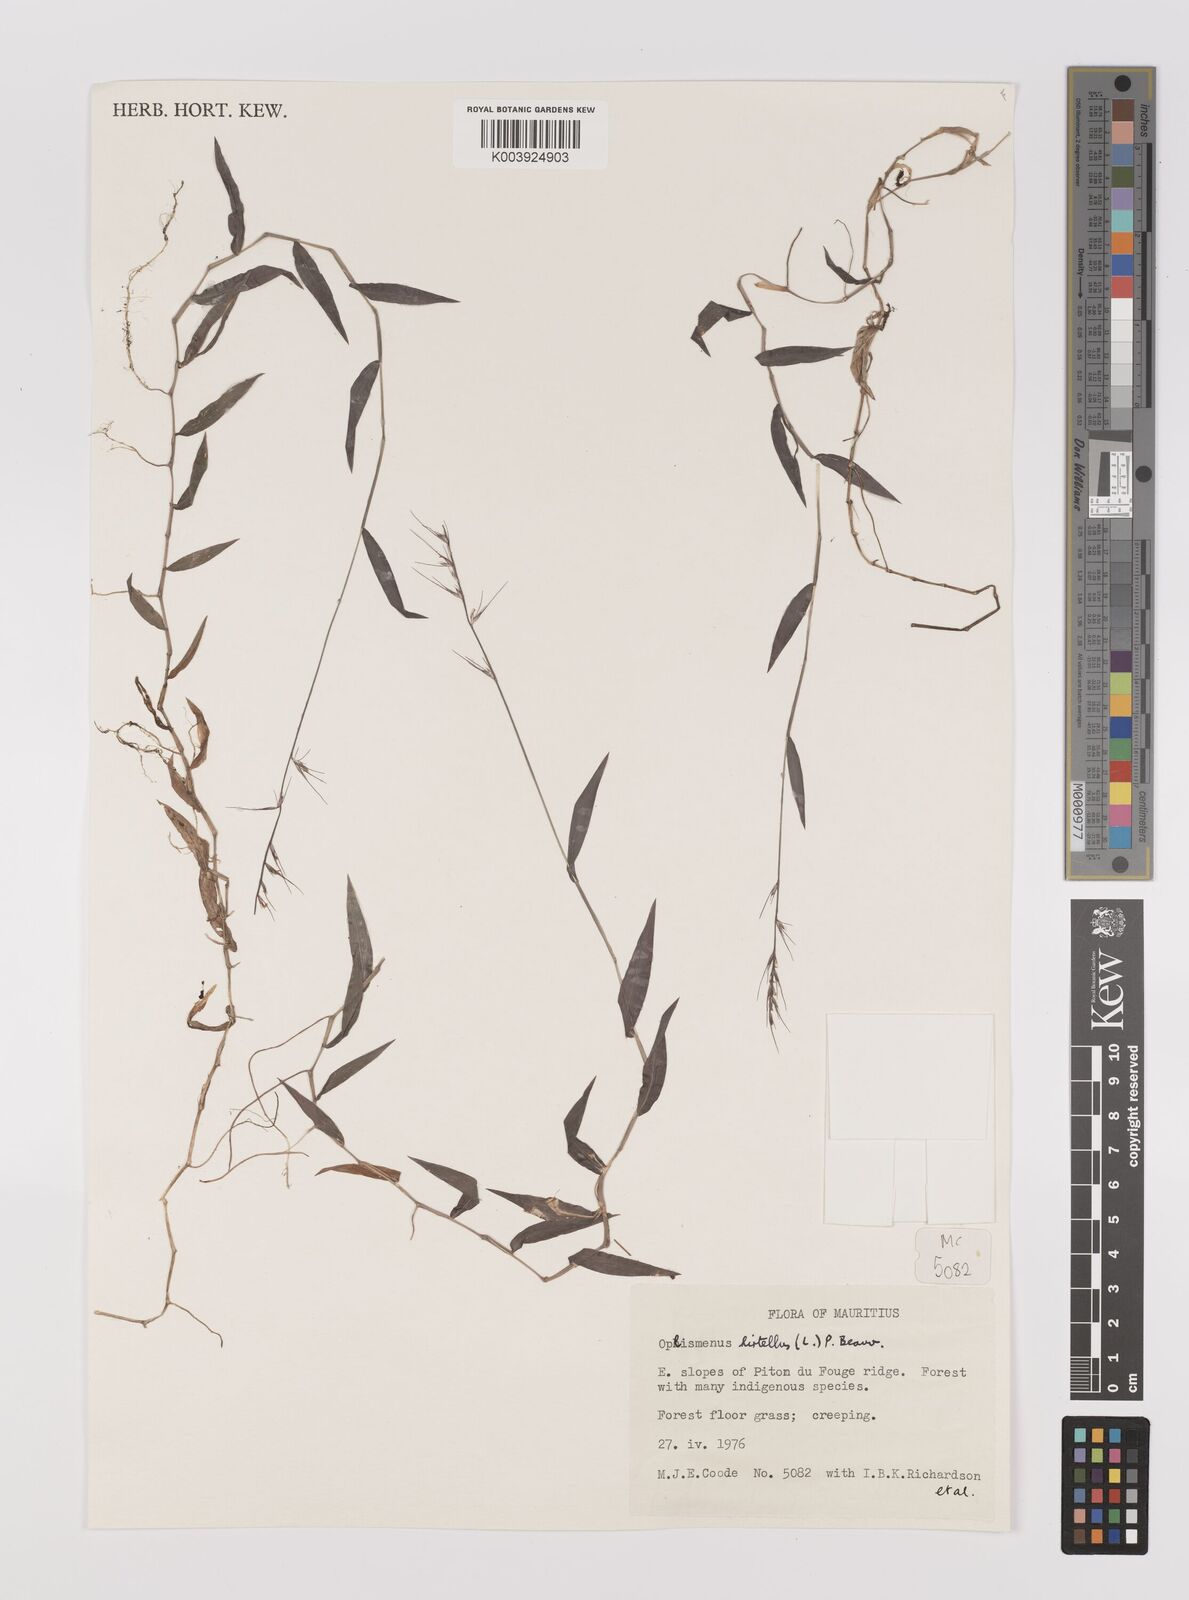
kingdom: Plantae
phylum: Tracheophyta
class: Liliopsida
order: Poales
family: Poaceae
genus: Oplismenus
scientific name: Oplismenus hirtellus
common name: Basketgrass
